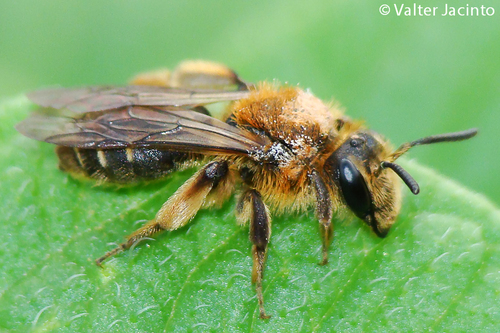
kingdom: Animalia
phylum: Arthropoda
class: Insecta
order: Hymenoptera
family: Andrenidae
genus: Andrena
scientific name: Andrena
